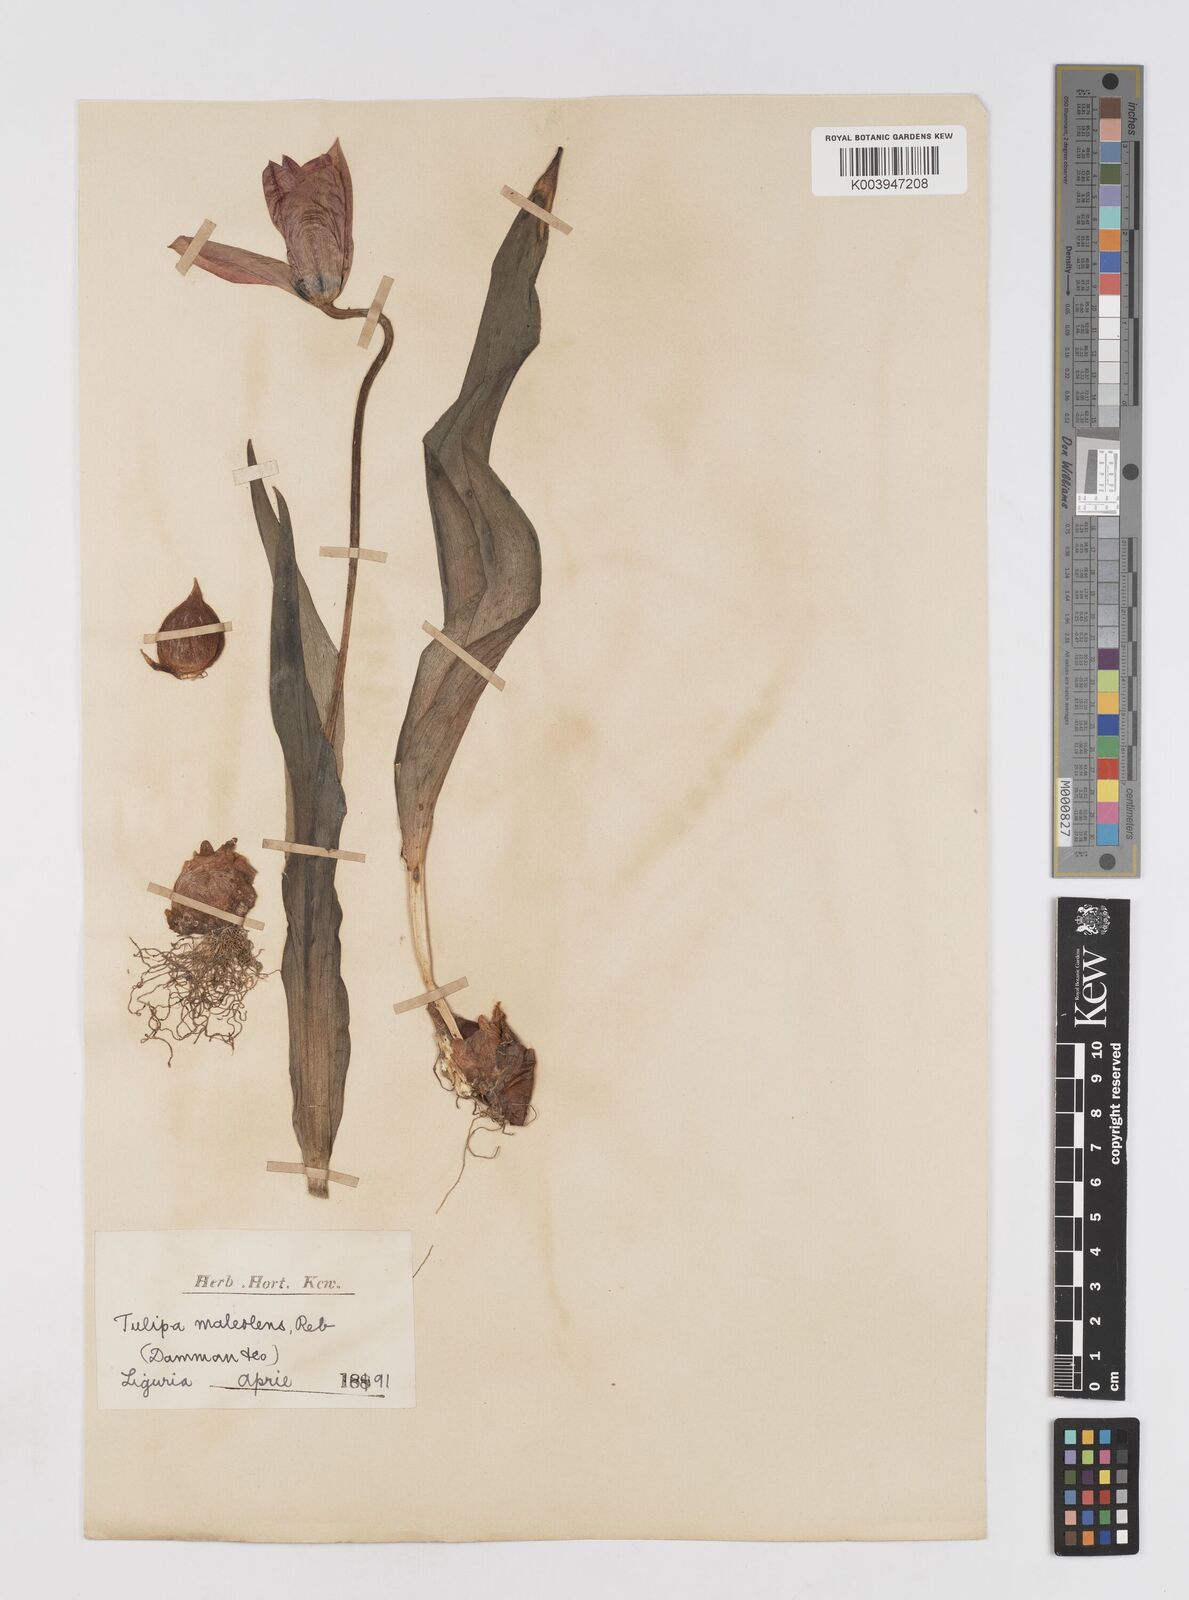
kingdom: Plantae
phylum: Tracheophyta
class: Liliopsida
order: Liliales
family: Liliaceae
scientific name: Liliaceae
